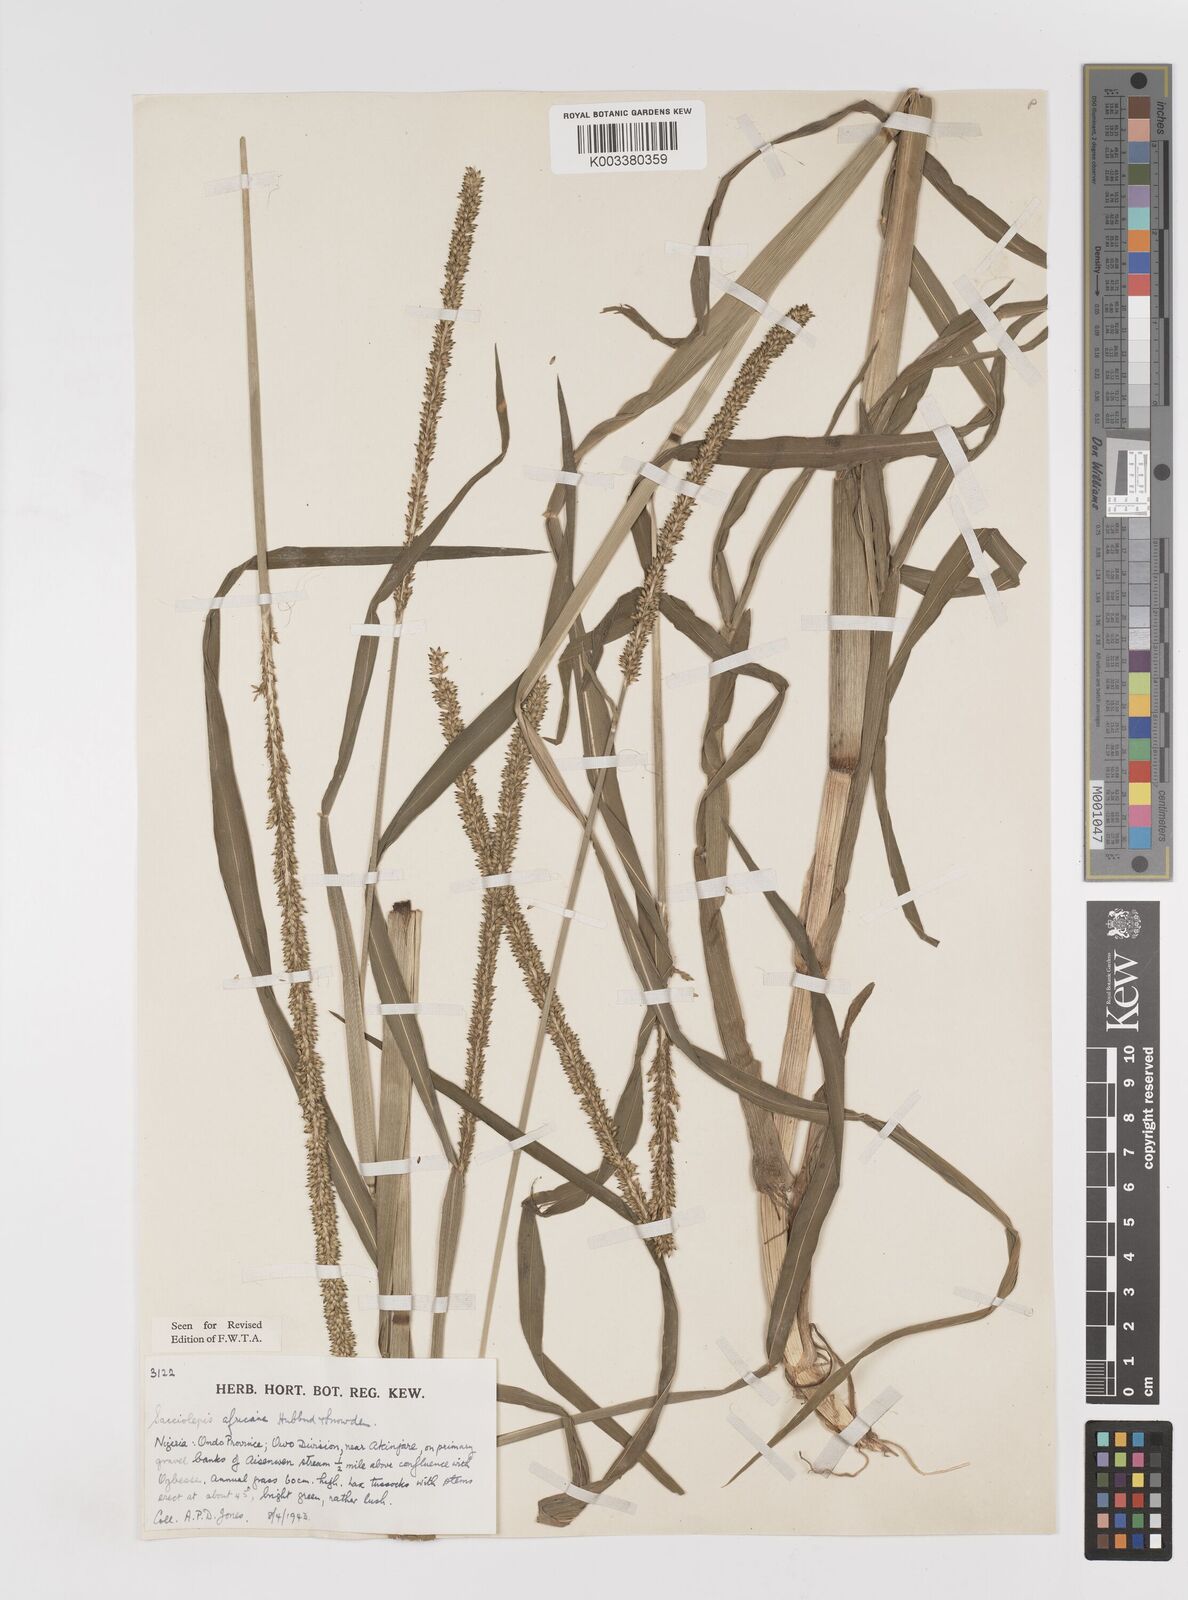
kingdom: Plantae
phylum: Tracheophyta
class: Liliopsida
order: Poales
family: Poaceae
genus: Sacciolepis
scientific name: Sacciolepis africana
